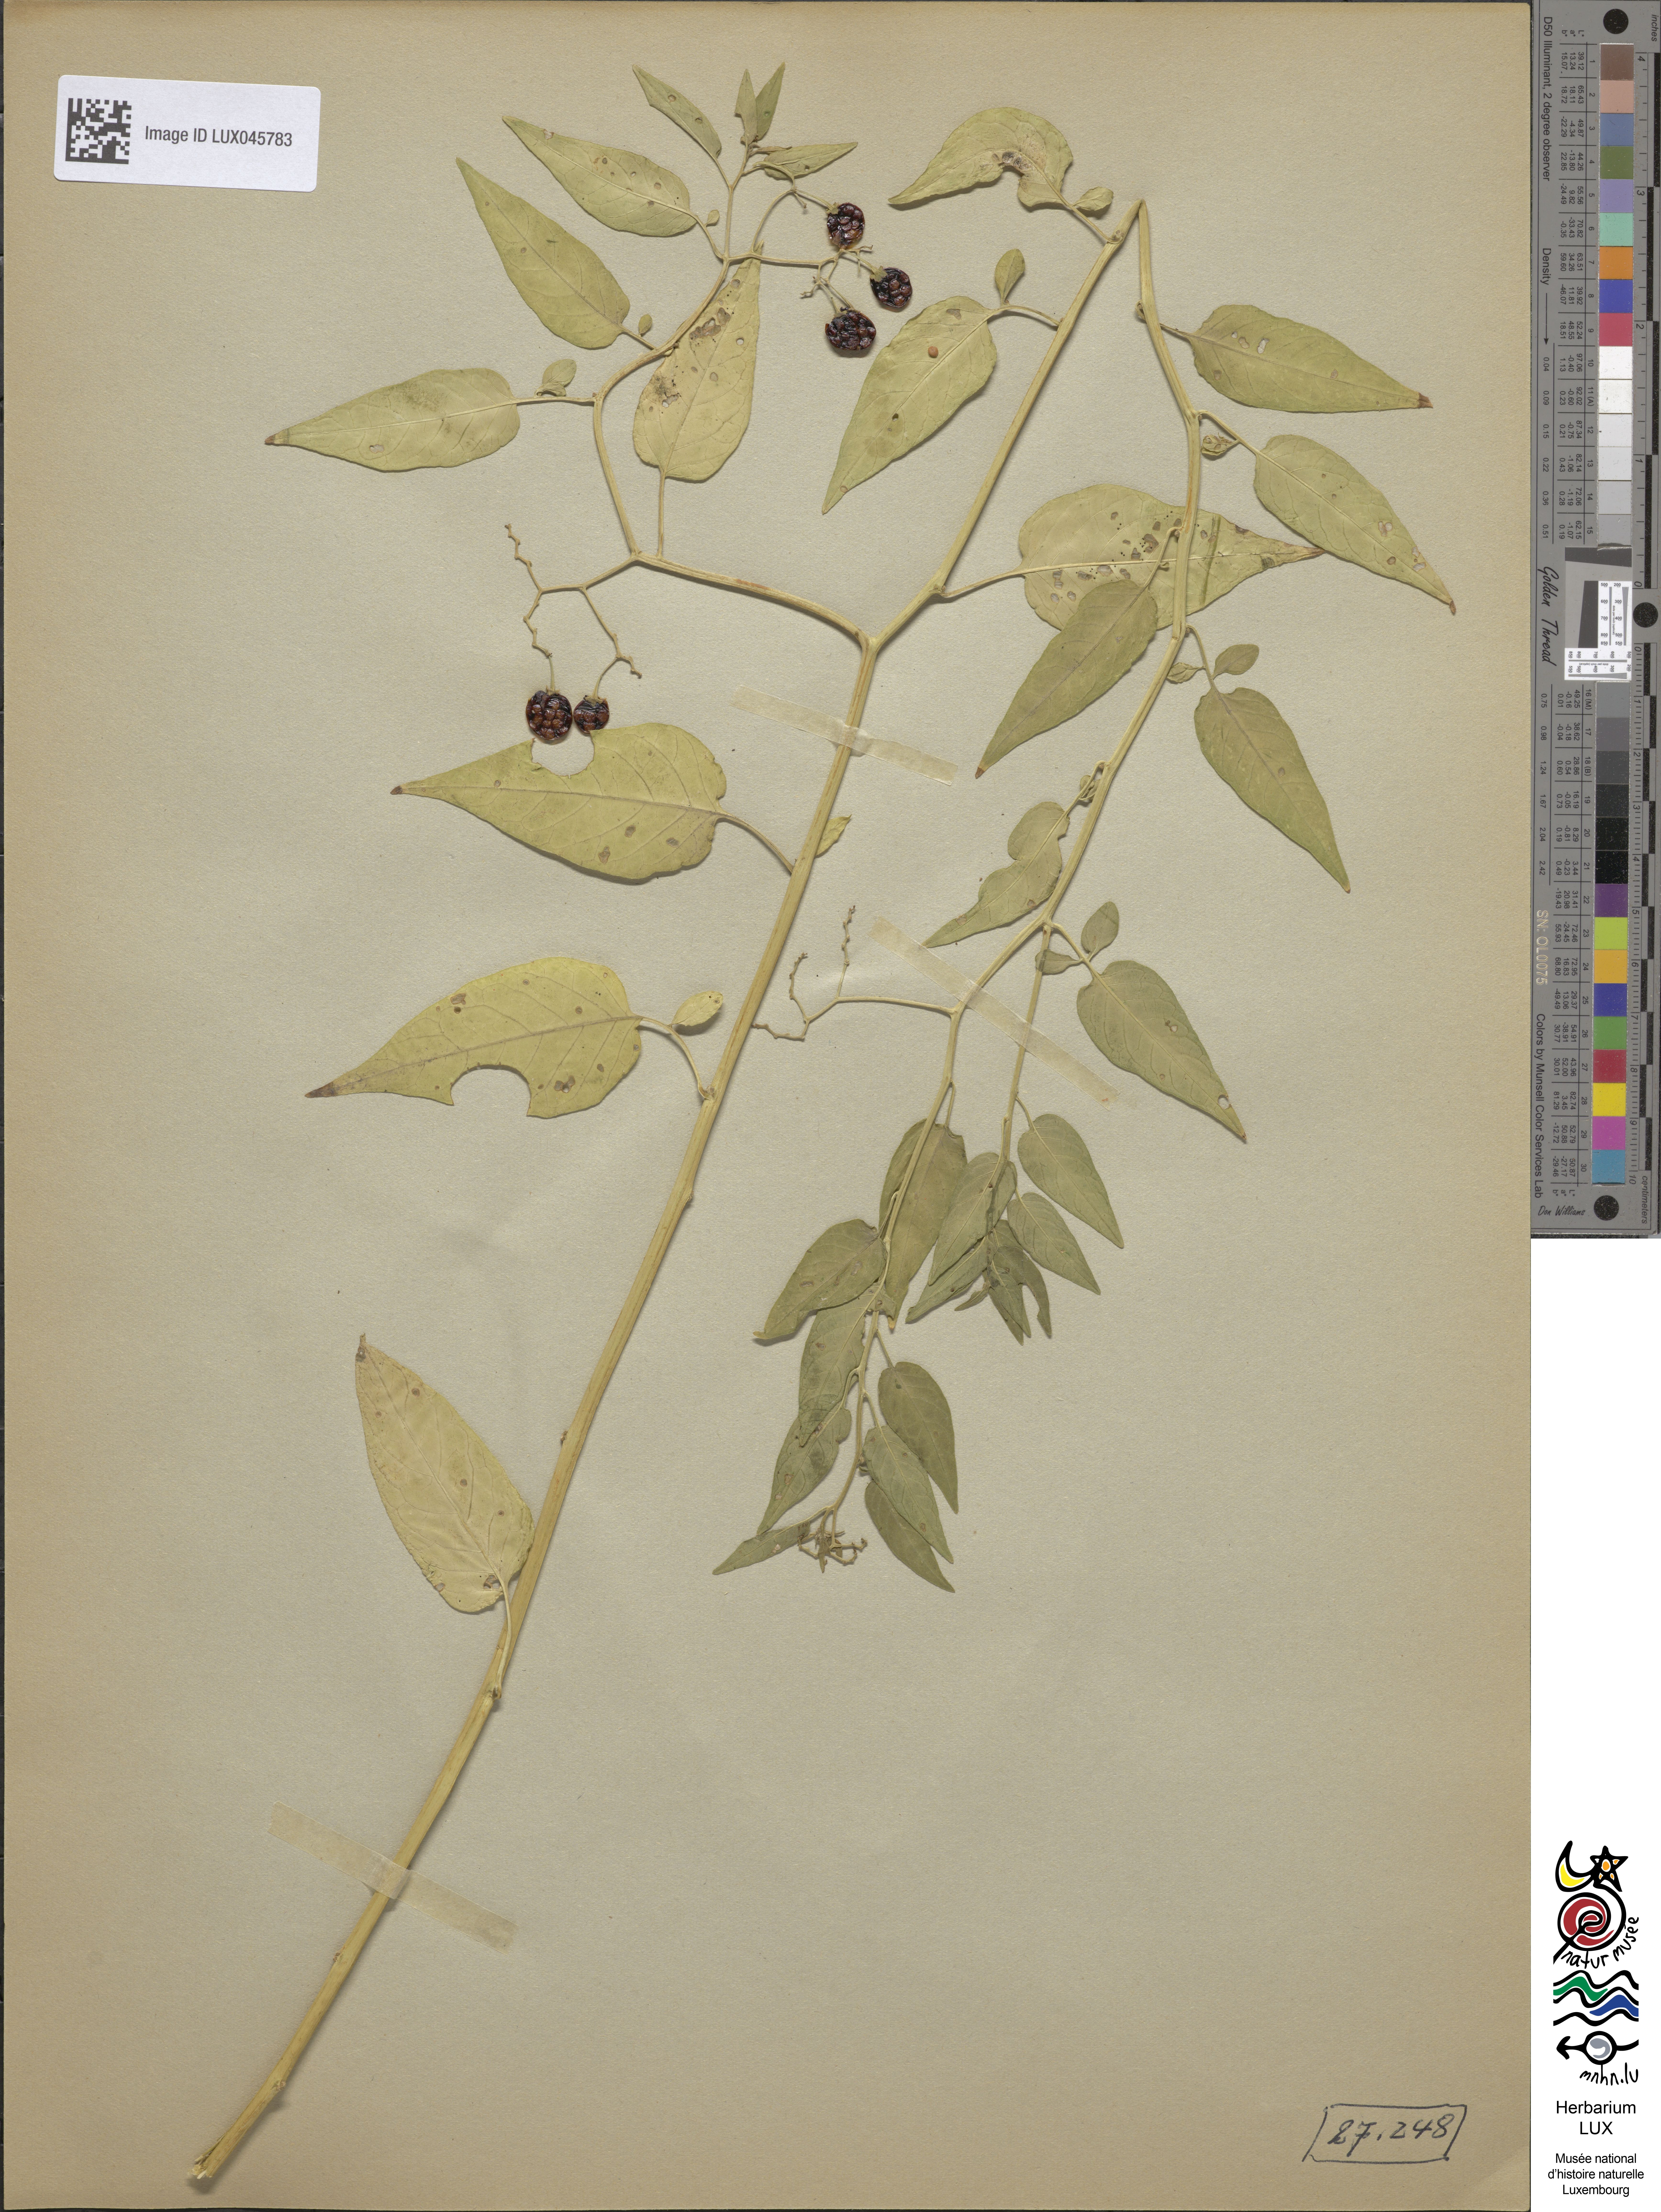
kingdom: Plantae
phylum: Tracheophyta
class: Magnoliopsida
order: Solanales
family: Solanaceae
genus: Solanum
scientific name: Solanum dulcamara
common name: Climbing nightshade
